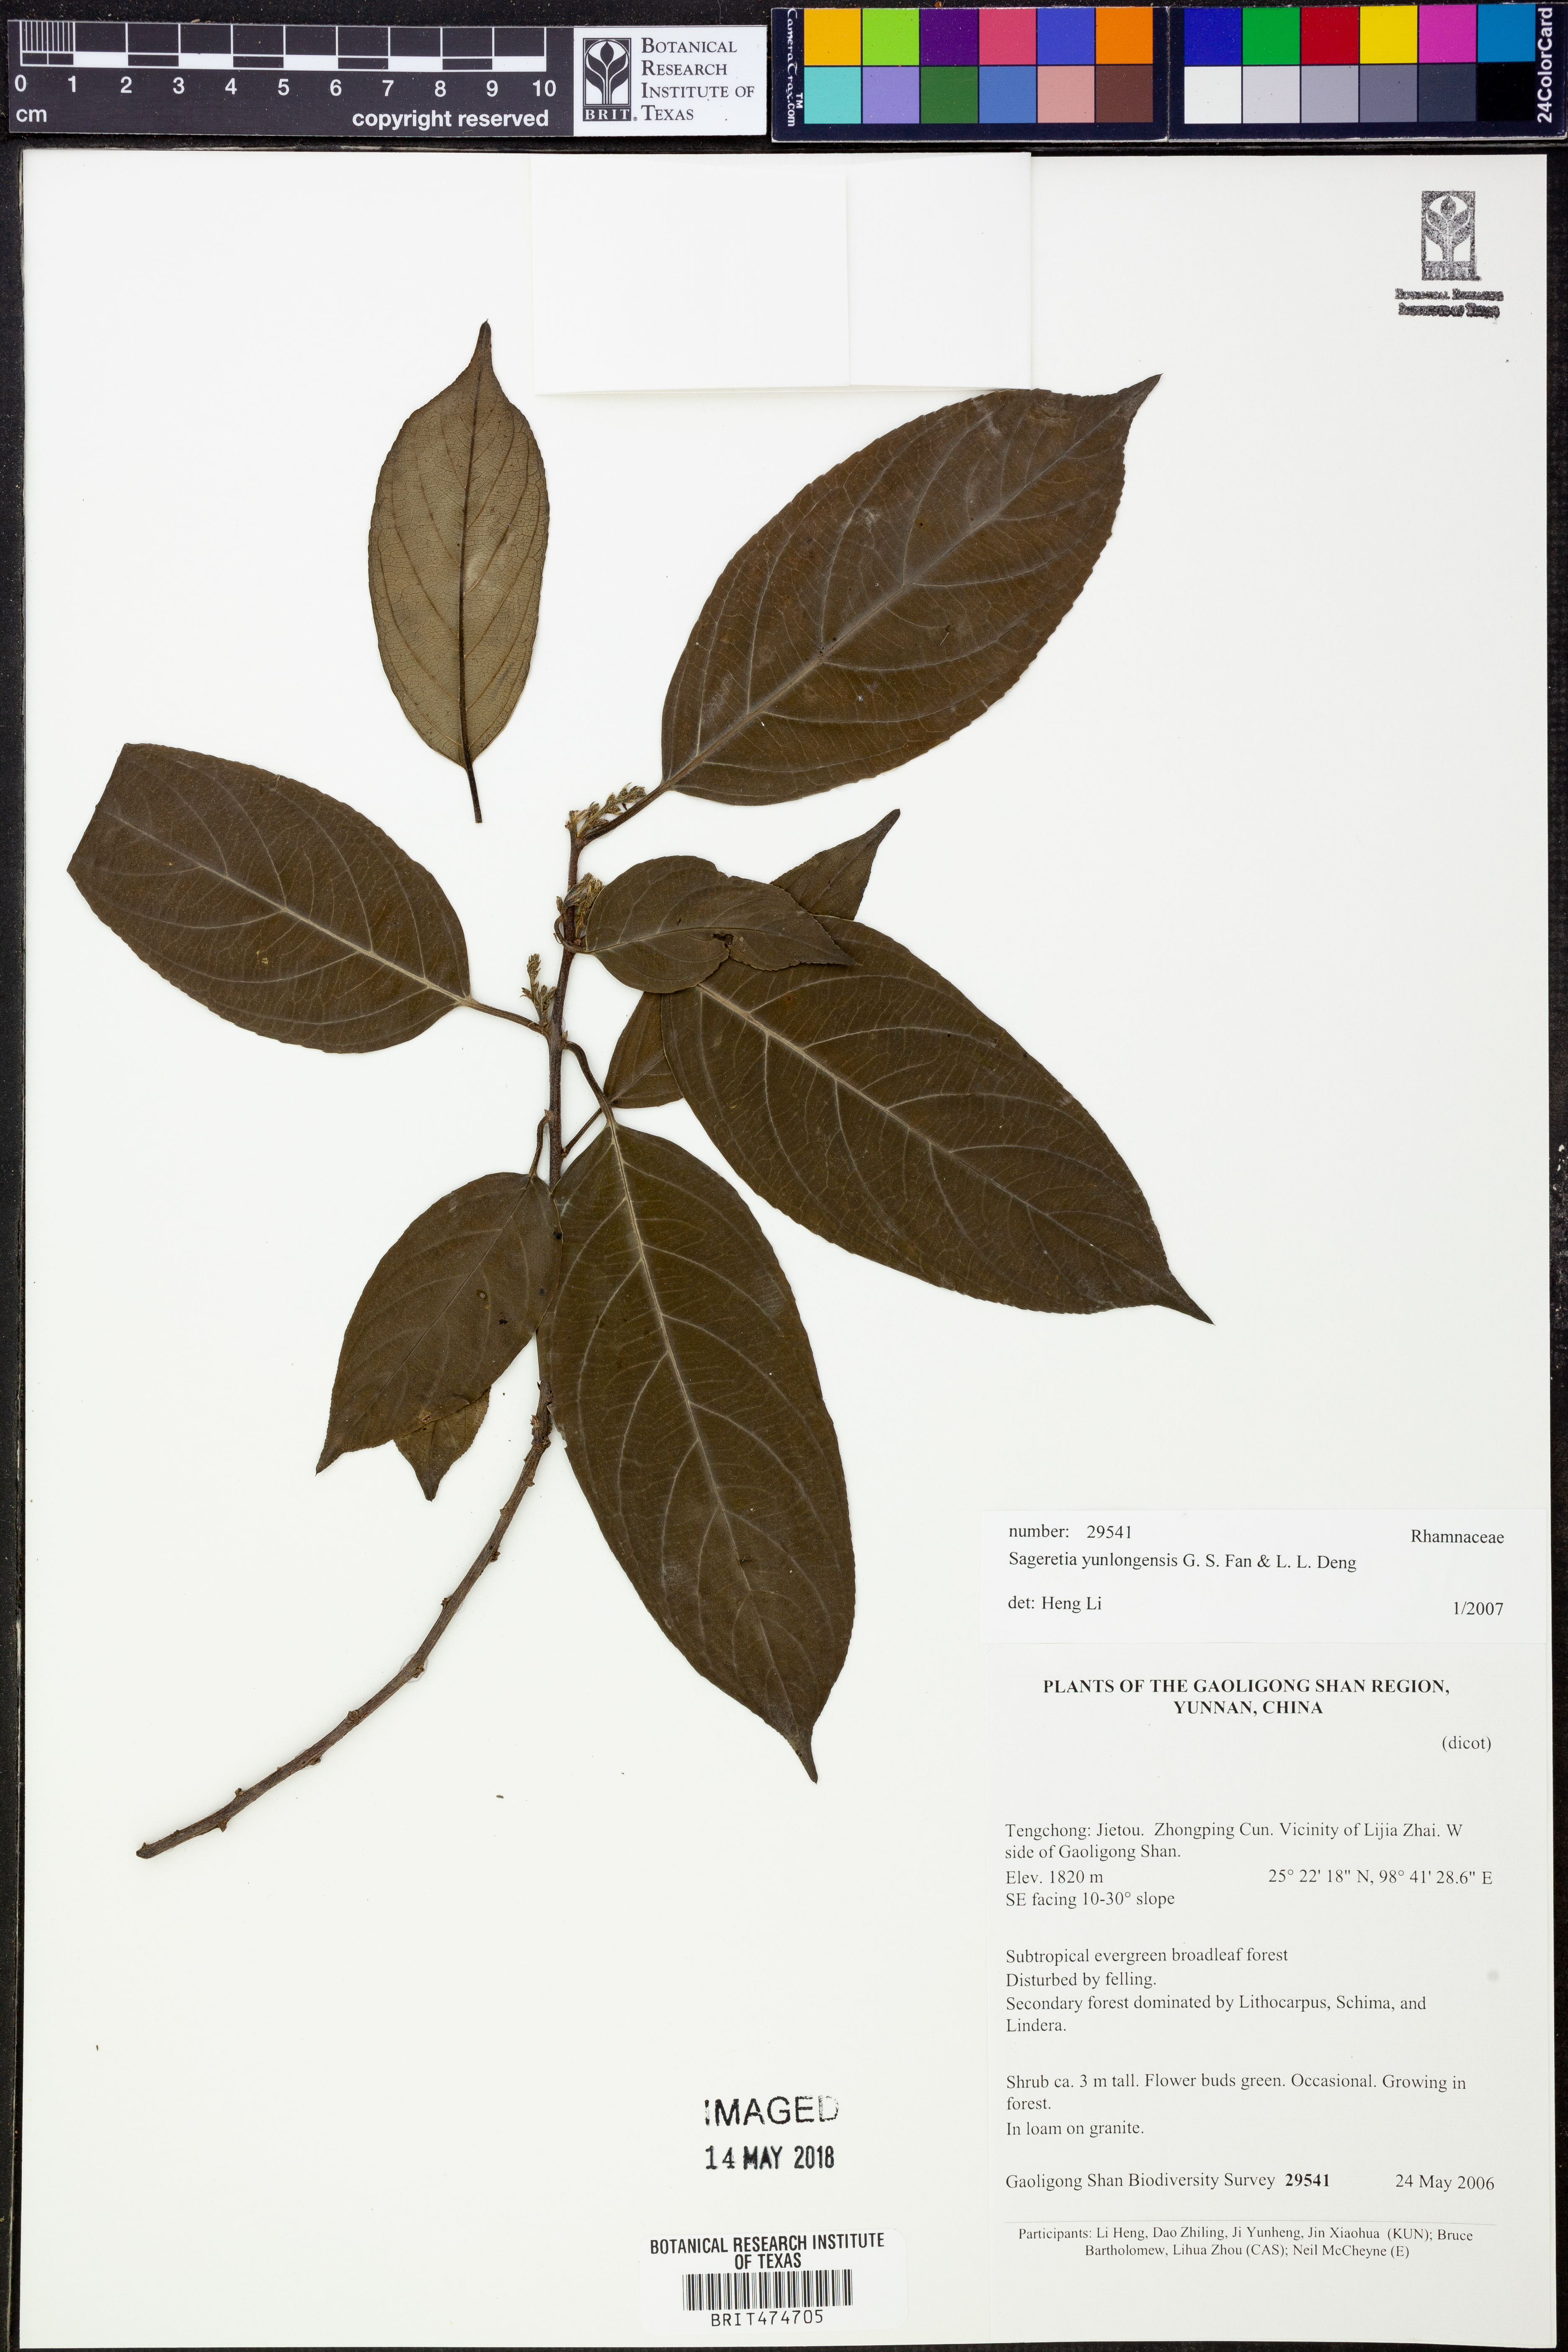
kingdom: Plantae
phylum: Tracheophyta
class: Magnoliopsida
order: Rosales
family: Rhamnaceae
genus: Rhamnus
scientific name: Rhamnus nigricans
